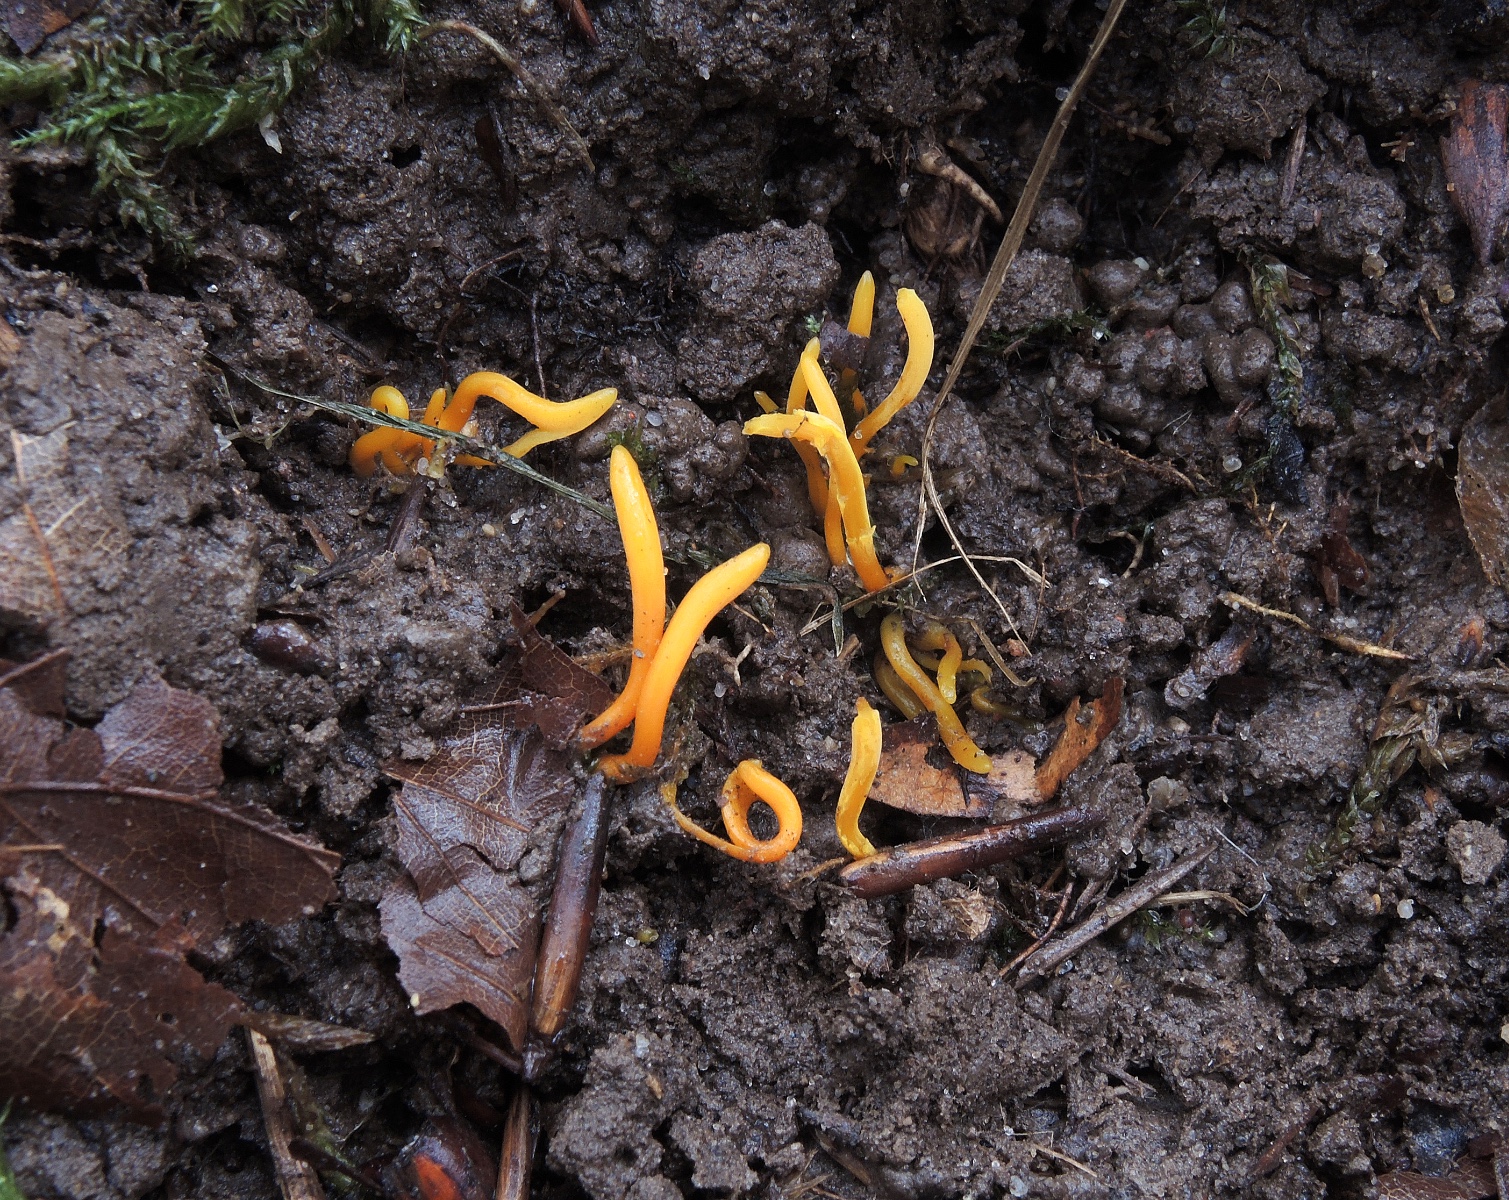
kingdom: Fungi
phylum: Basidiomycota
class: Agaricomycetes
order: Agaricales
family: Clavariaceae
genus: Clavulinopsis
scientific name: Clavulinopsis helvola
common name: orangegul køllesvamp
